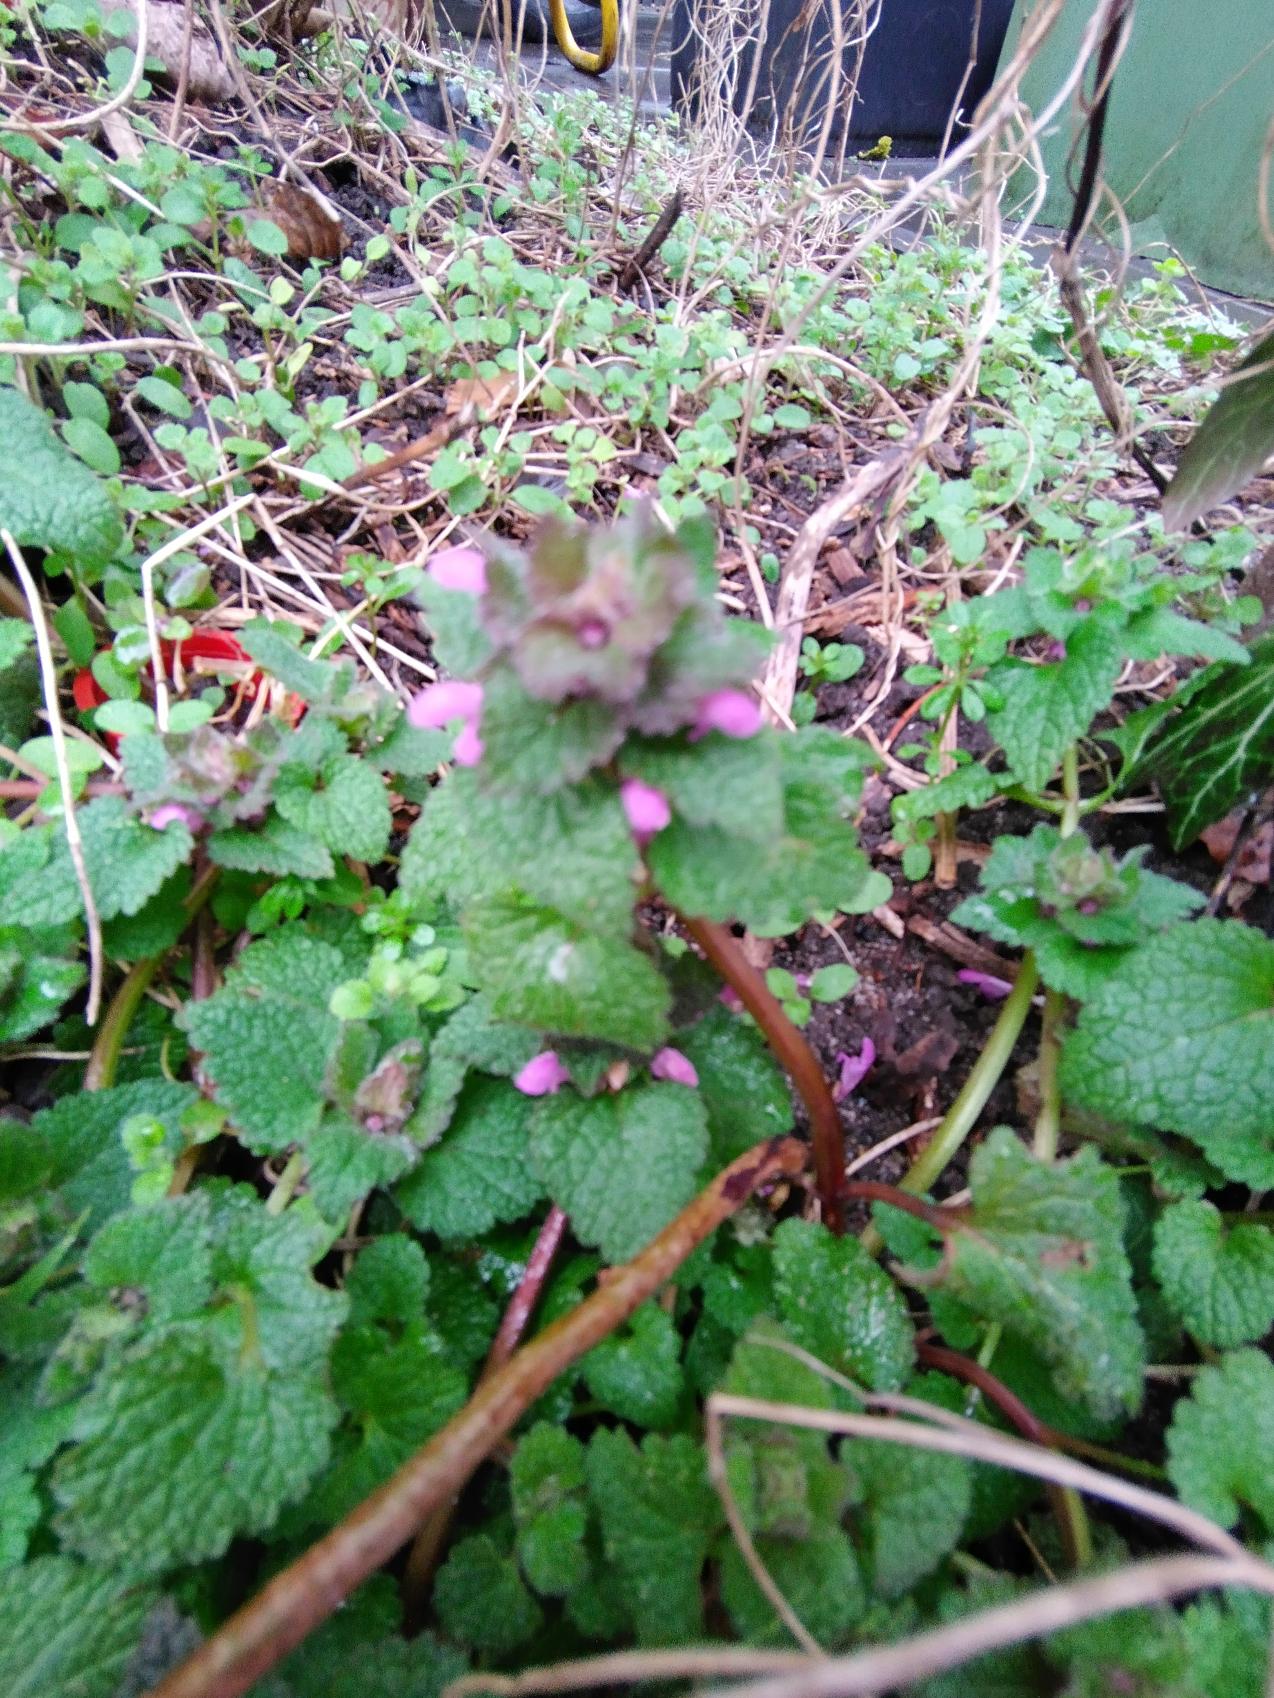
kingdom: Plantae
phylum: Tracheophyta
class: Magnoliopsida
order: Lamiales
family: Lamiaceae
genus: Lamium
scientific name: Lamium purpureum
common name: Rød tvetand
